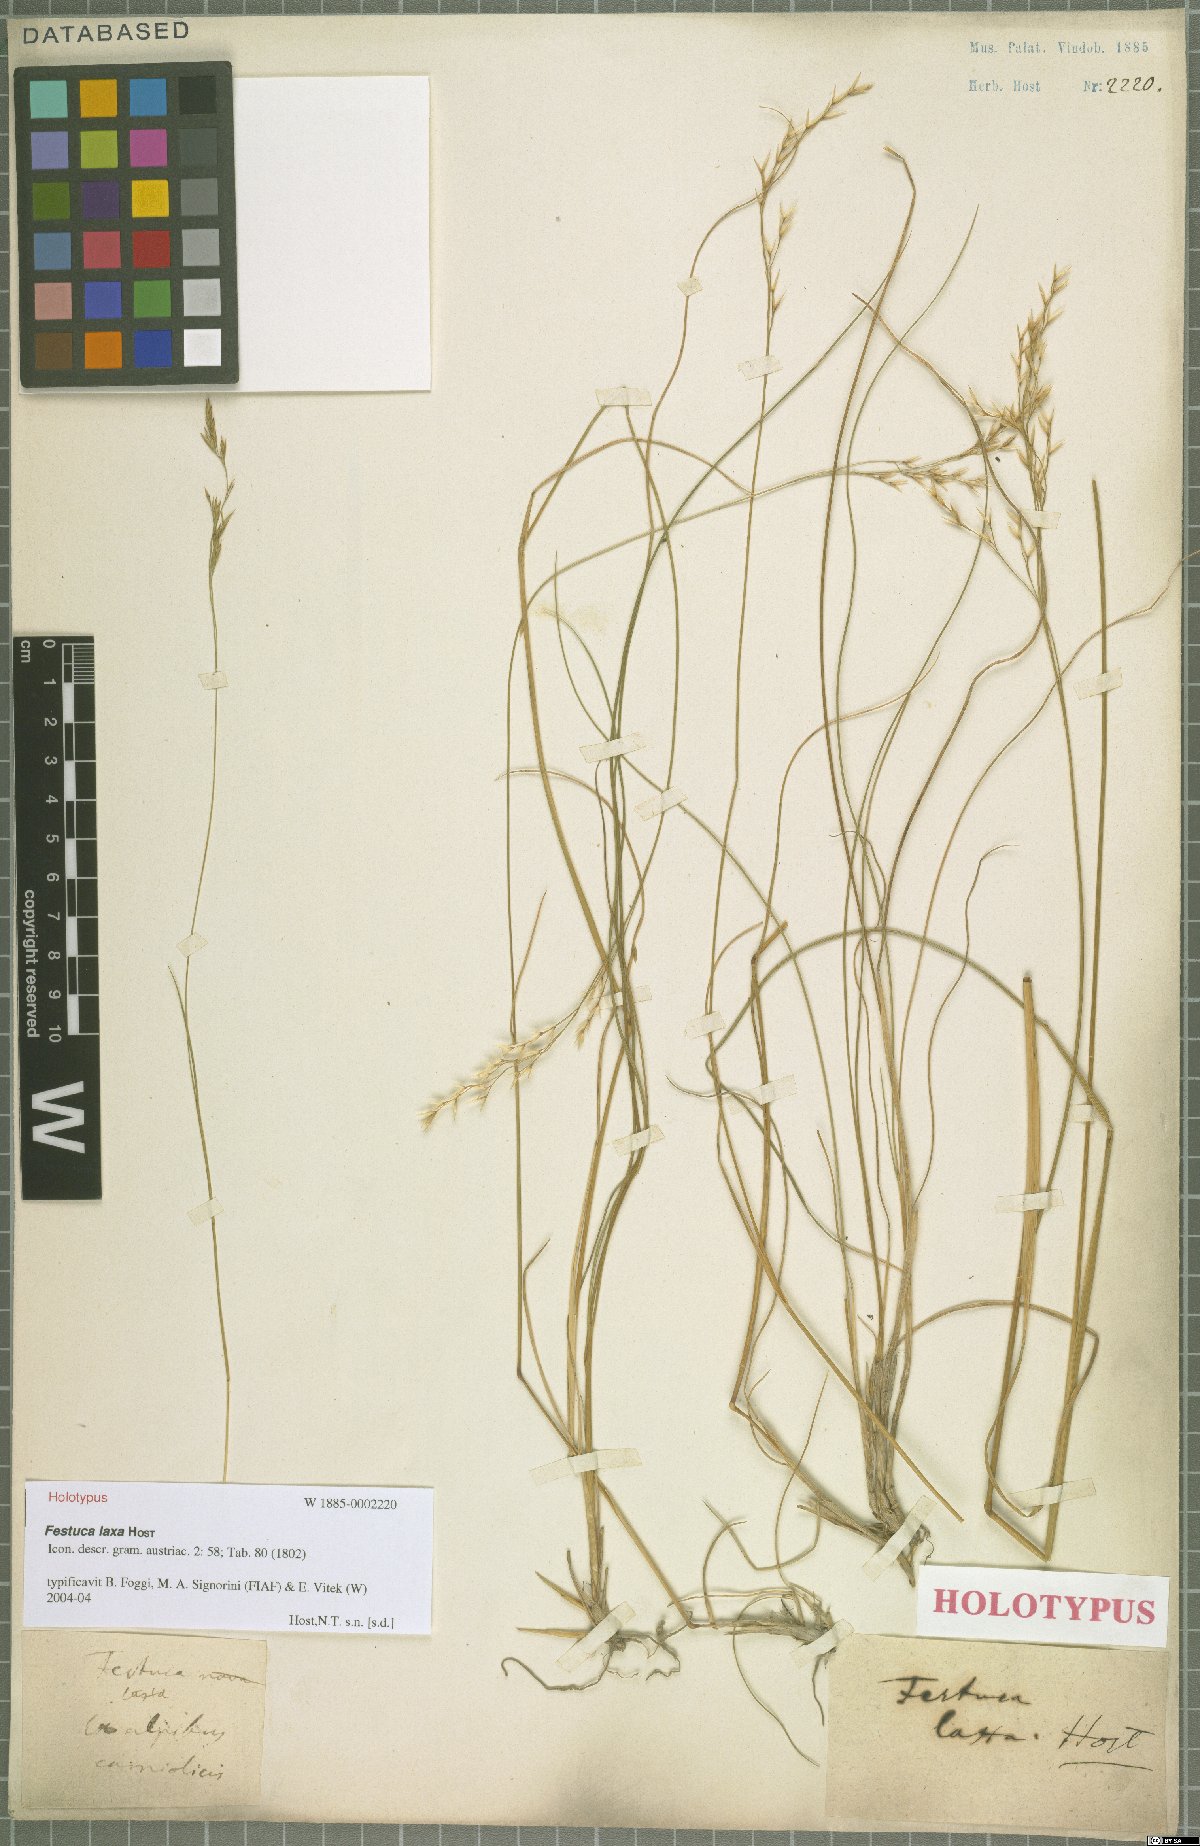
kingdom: Plantae
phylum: Tracheophyta
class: Liliopsida
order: Poales
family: Poaceae
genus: Festuca
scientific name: Festuca laxa
